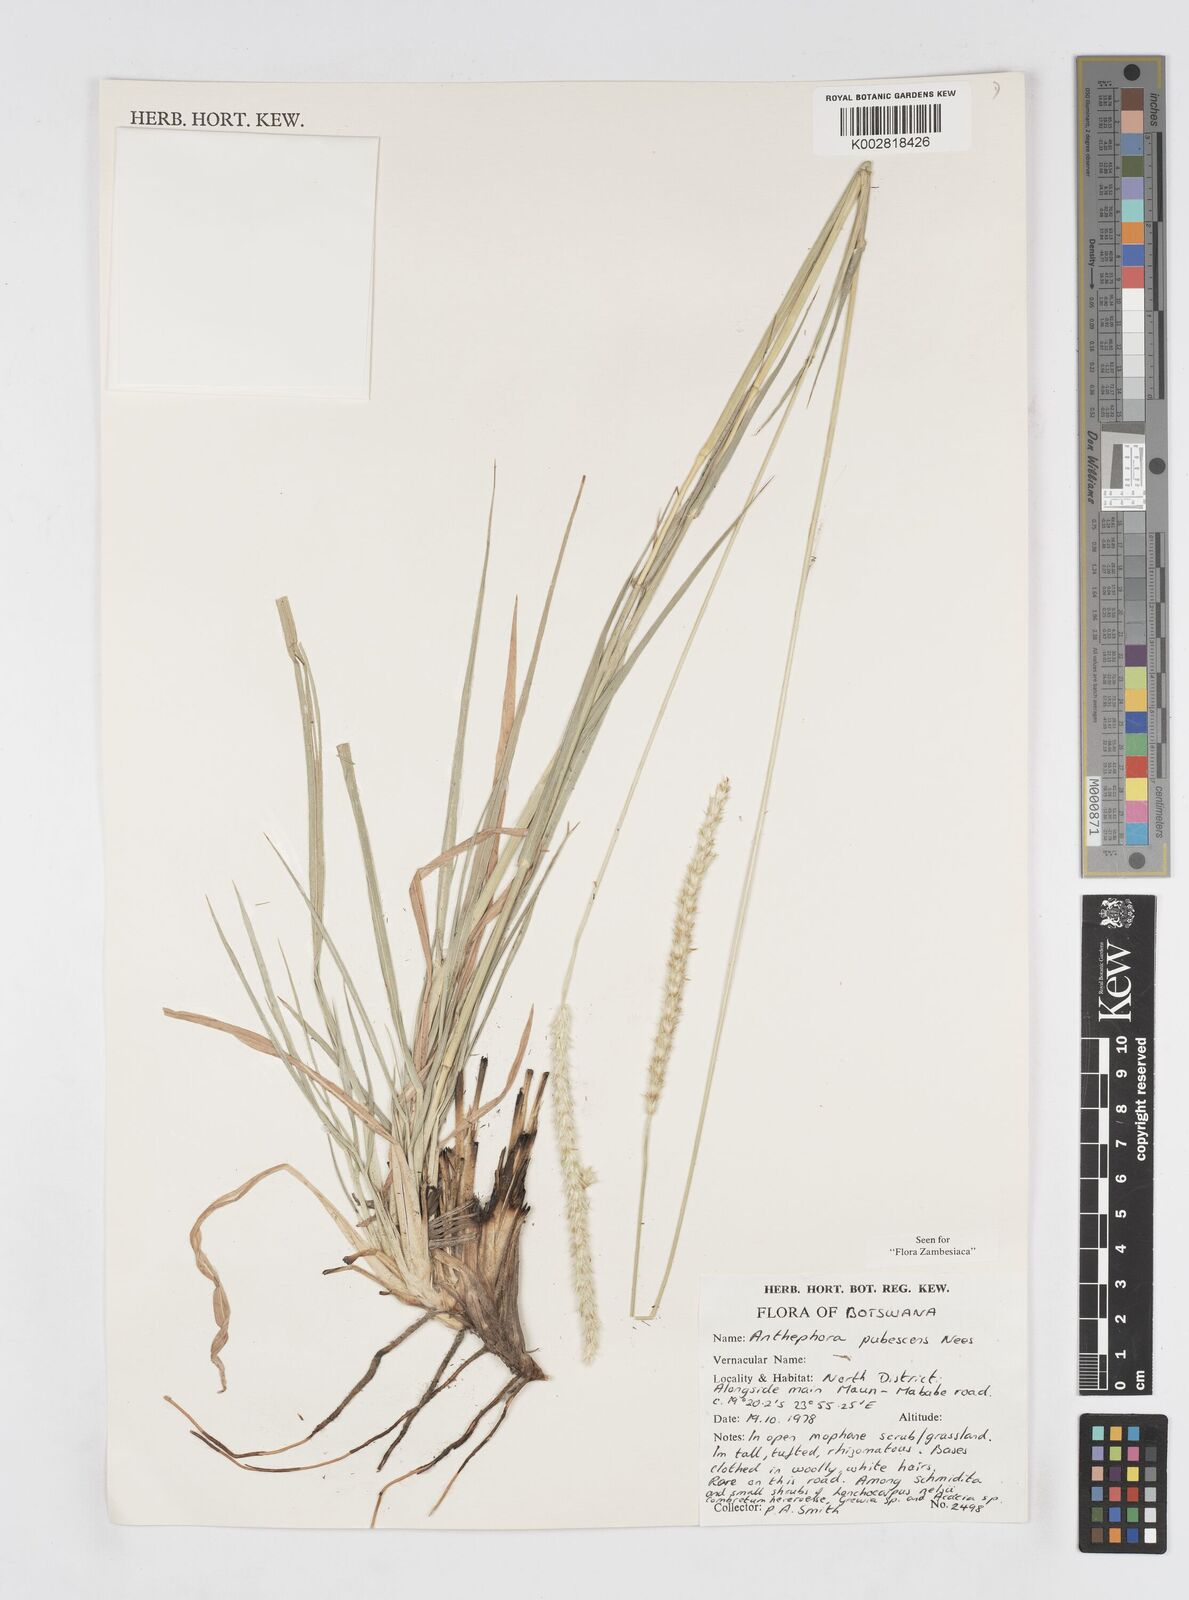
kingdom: Plantae
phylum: Tracheophyta
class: Liliopsida
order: Poales
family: Poaceae
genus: Anthephora
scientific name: Anthephora pubescens
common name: Wool grass
